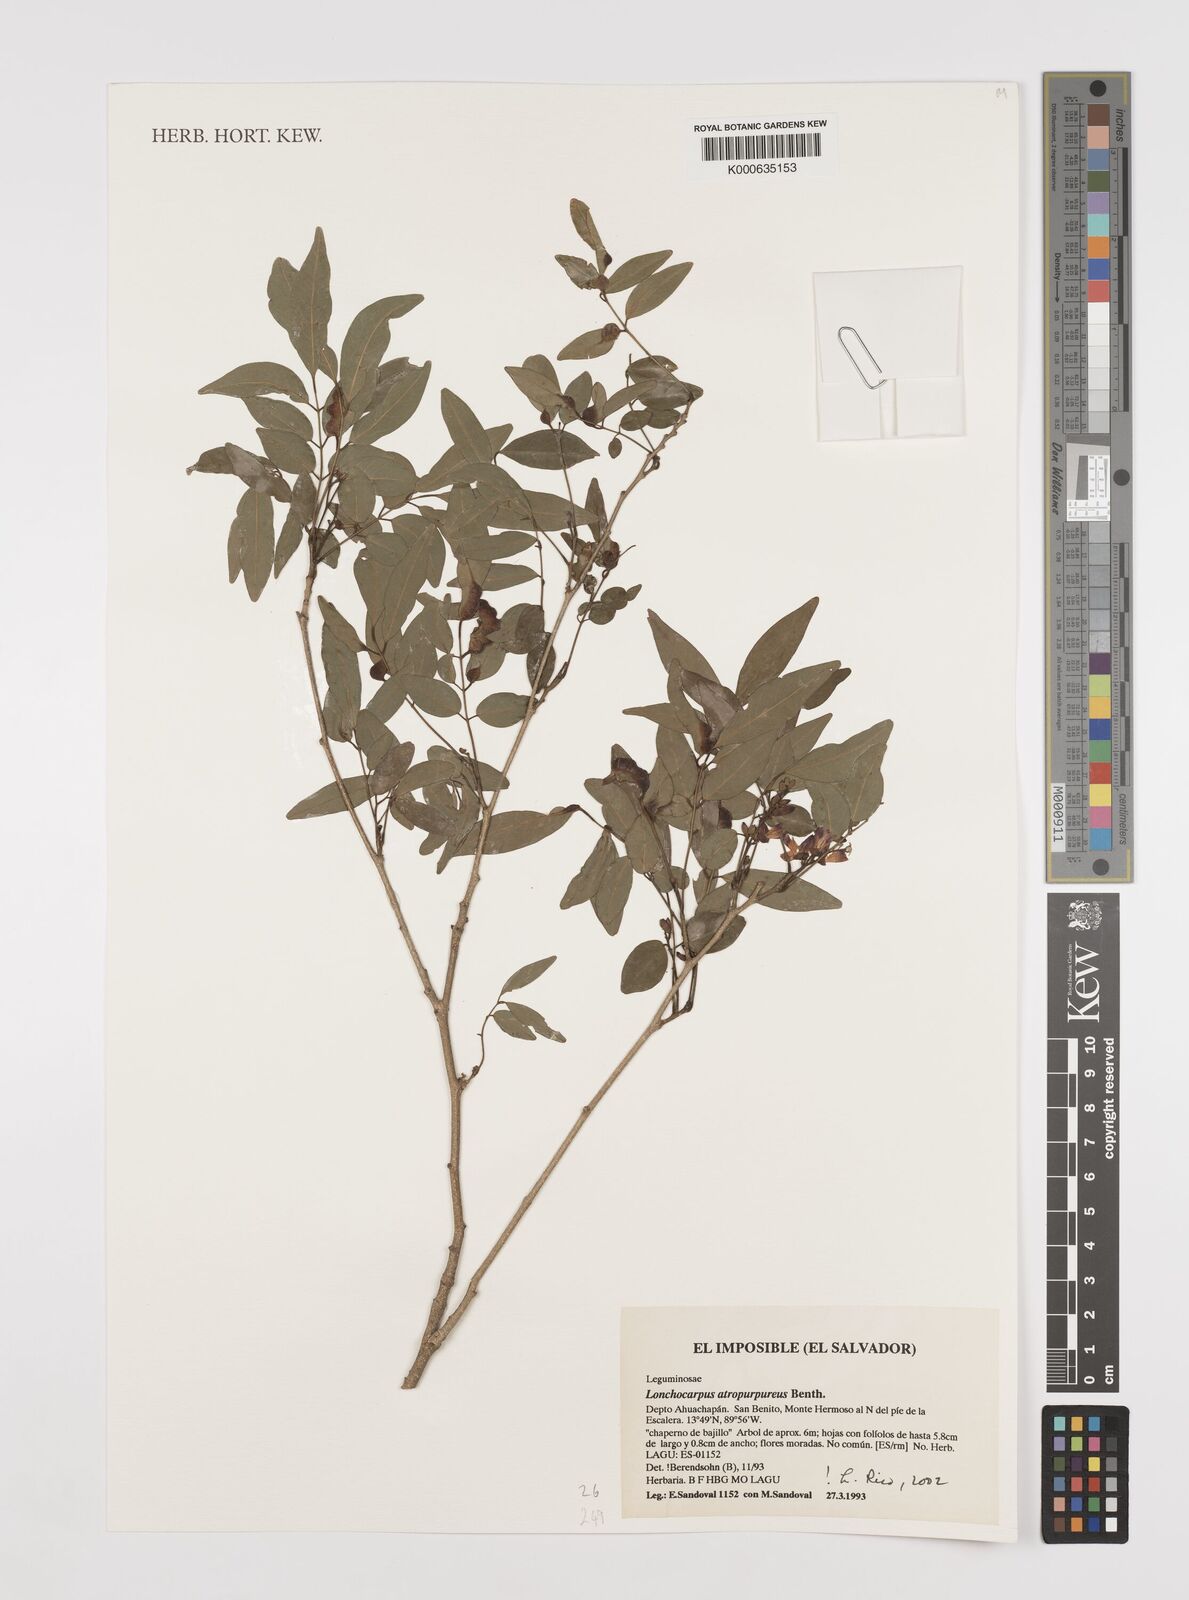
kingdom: Plantae
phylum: Tracheophyta
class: Magnoliopsida
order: Fabales
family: Fabaceae
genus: Lonchocarpus
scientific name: Lonchocarpus atropurpureus
